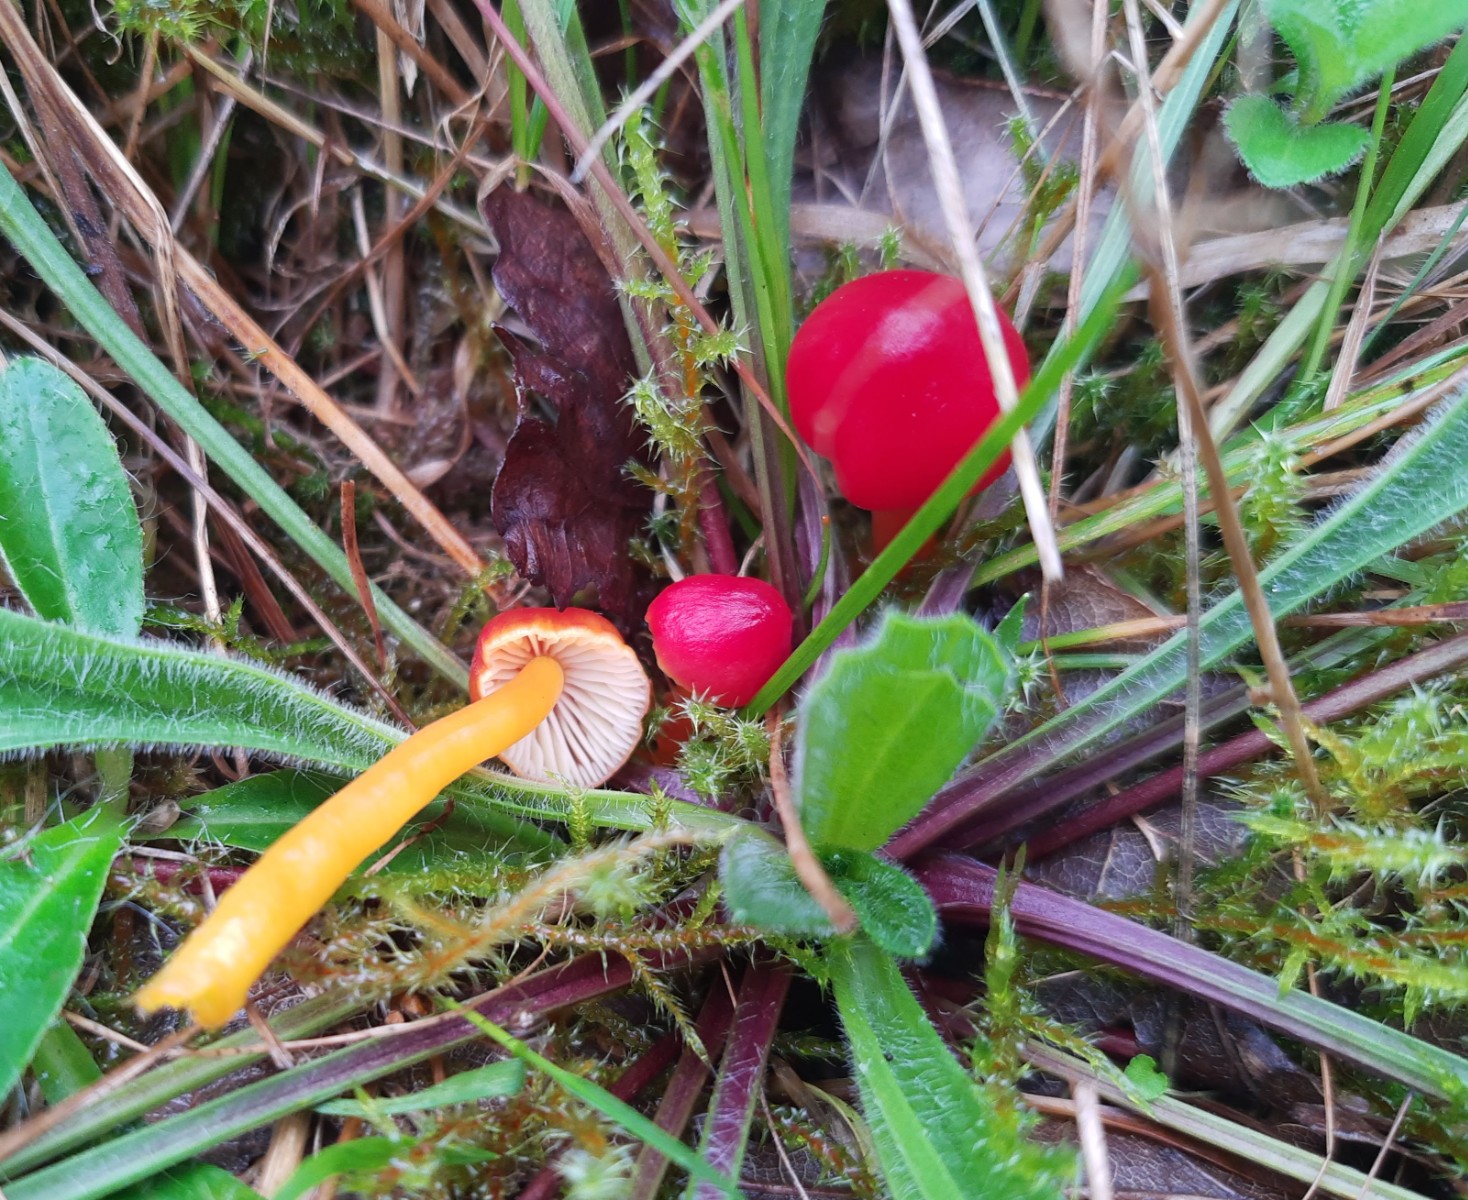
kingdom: Fungi
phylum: Basidiomycota
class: Agaricomycetes
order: Agaricales
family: Hygrophoraceae
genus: Hygrocybe
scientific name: Hygrocybe coccinea
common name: cinnober-vokshat
